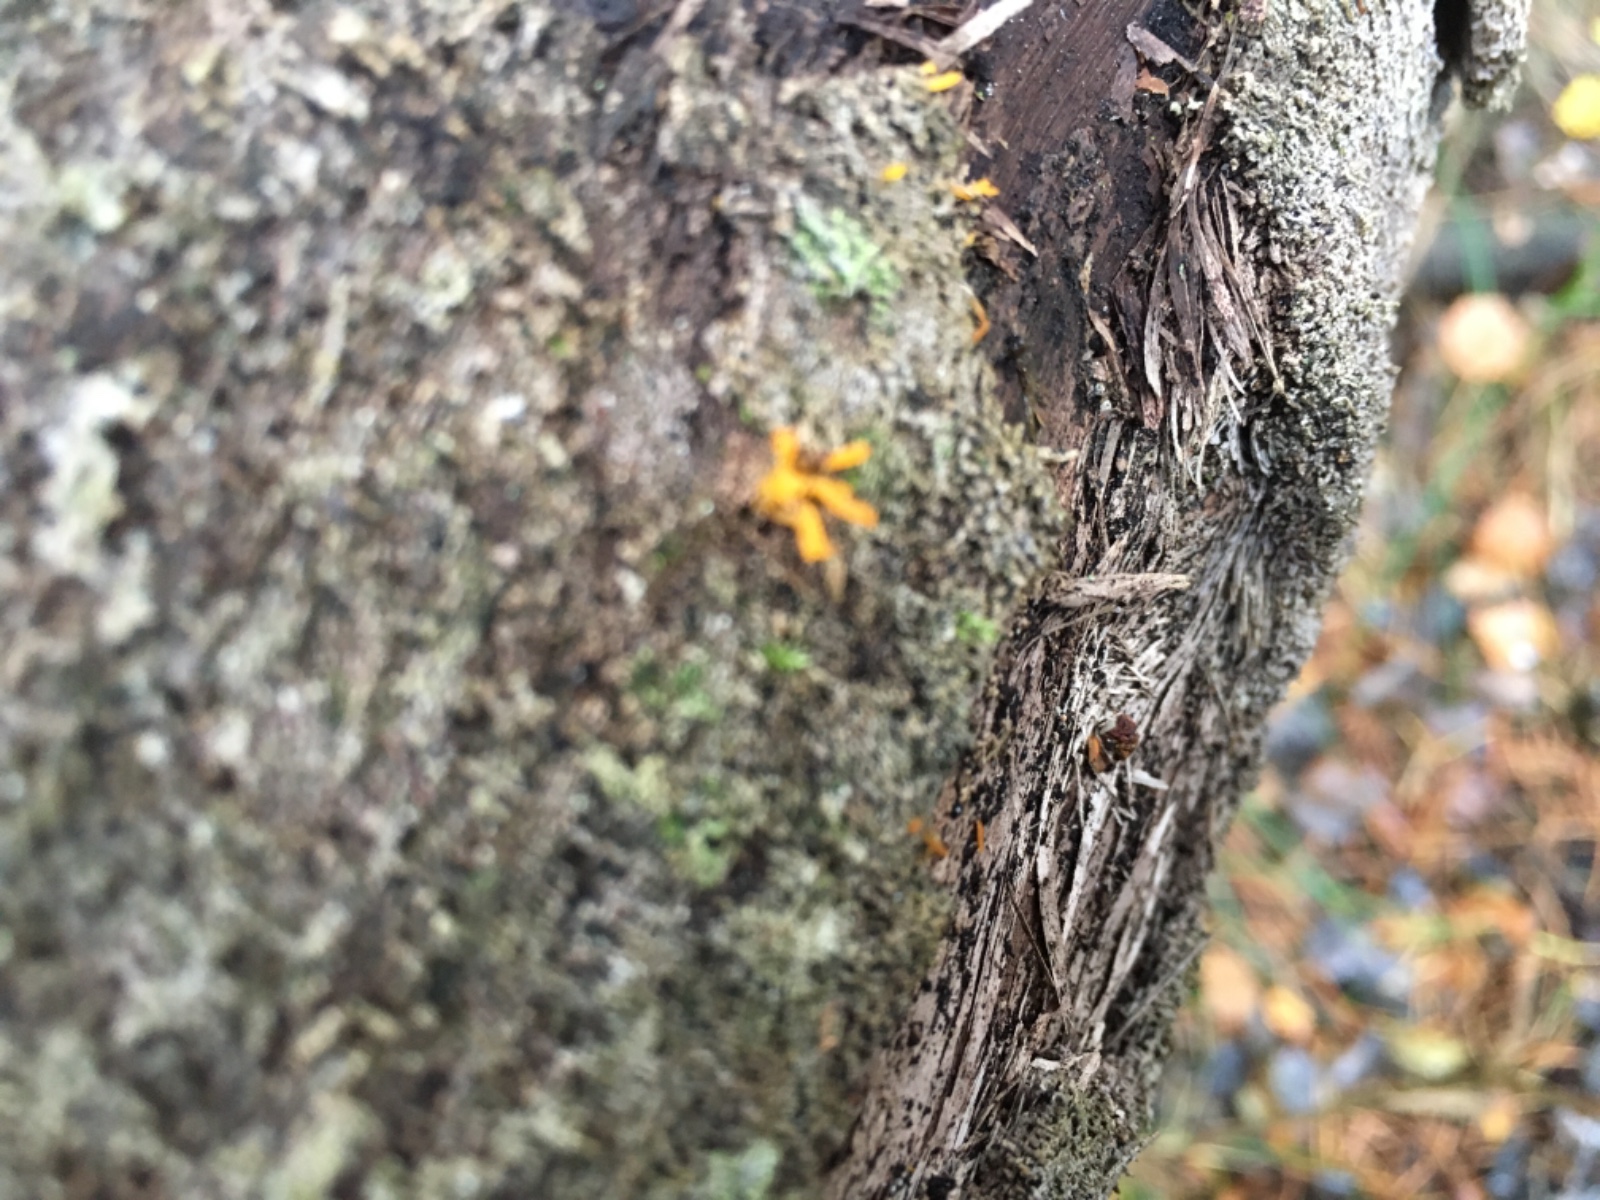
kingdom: Fungi
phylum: Basidiomycota
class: Dacrymycetes
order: Dacrymycetales
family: Dacrymycetaceae
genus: Calocera
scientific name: Calocera cornea
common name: liden guldgaffel
